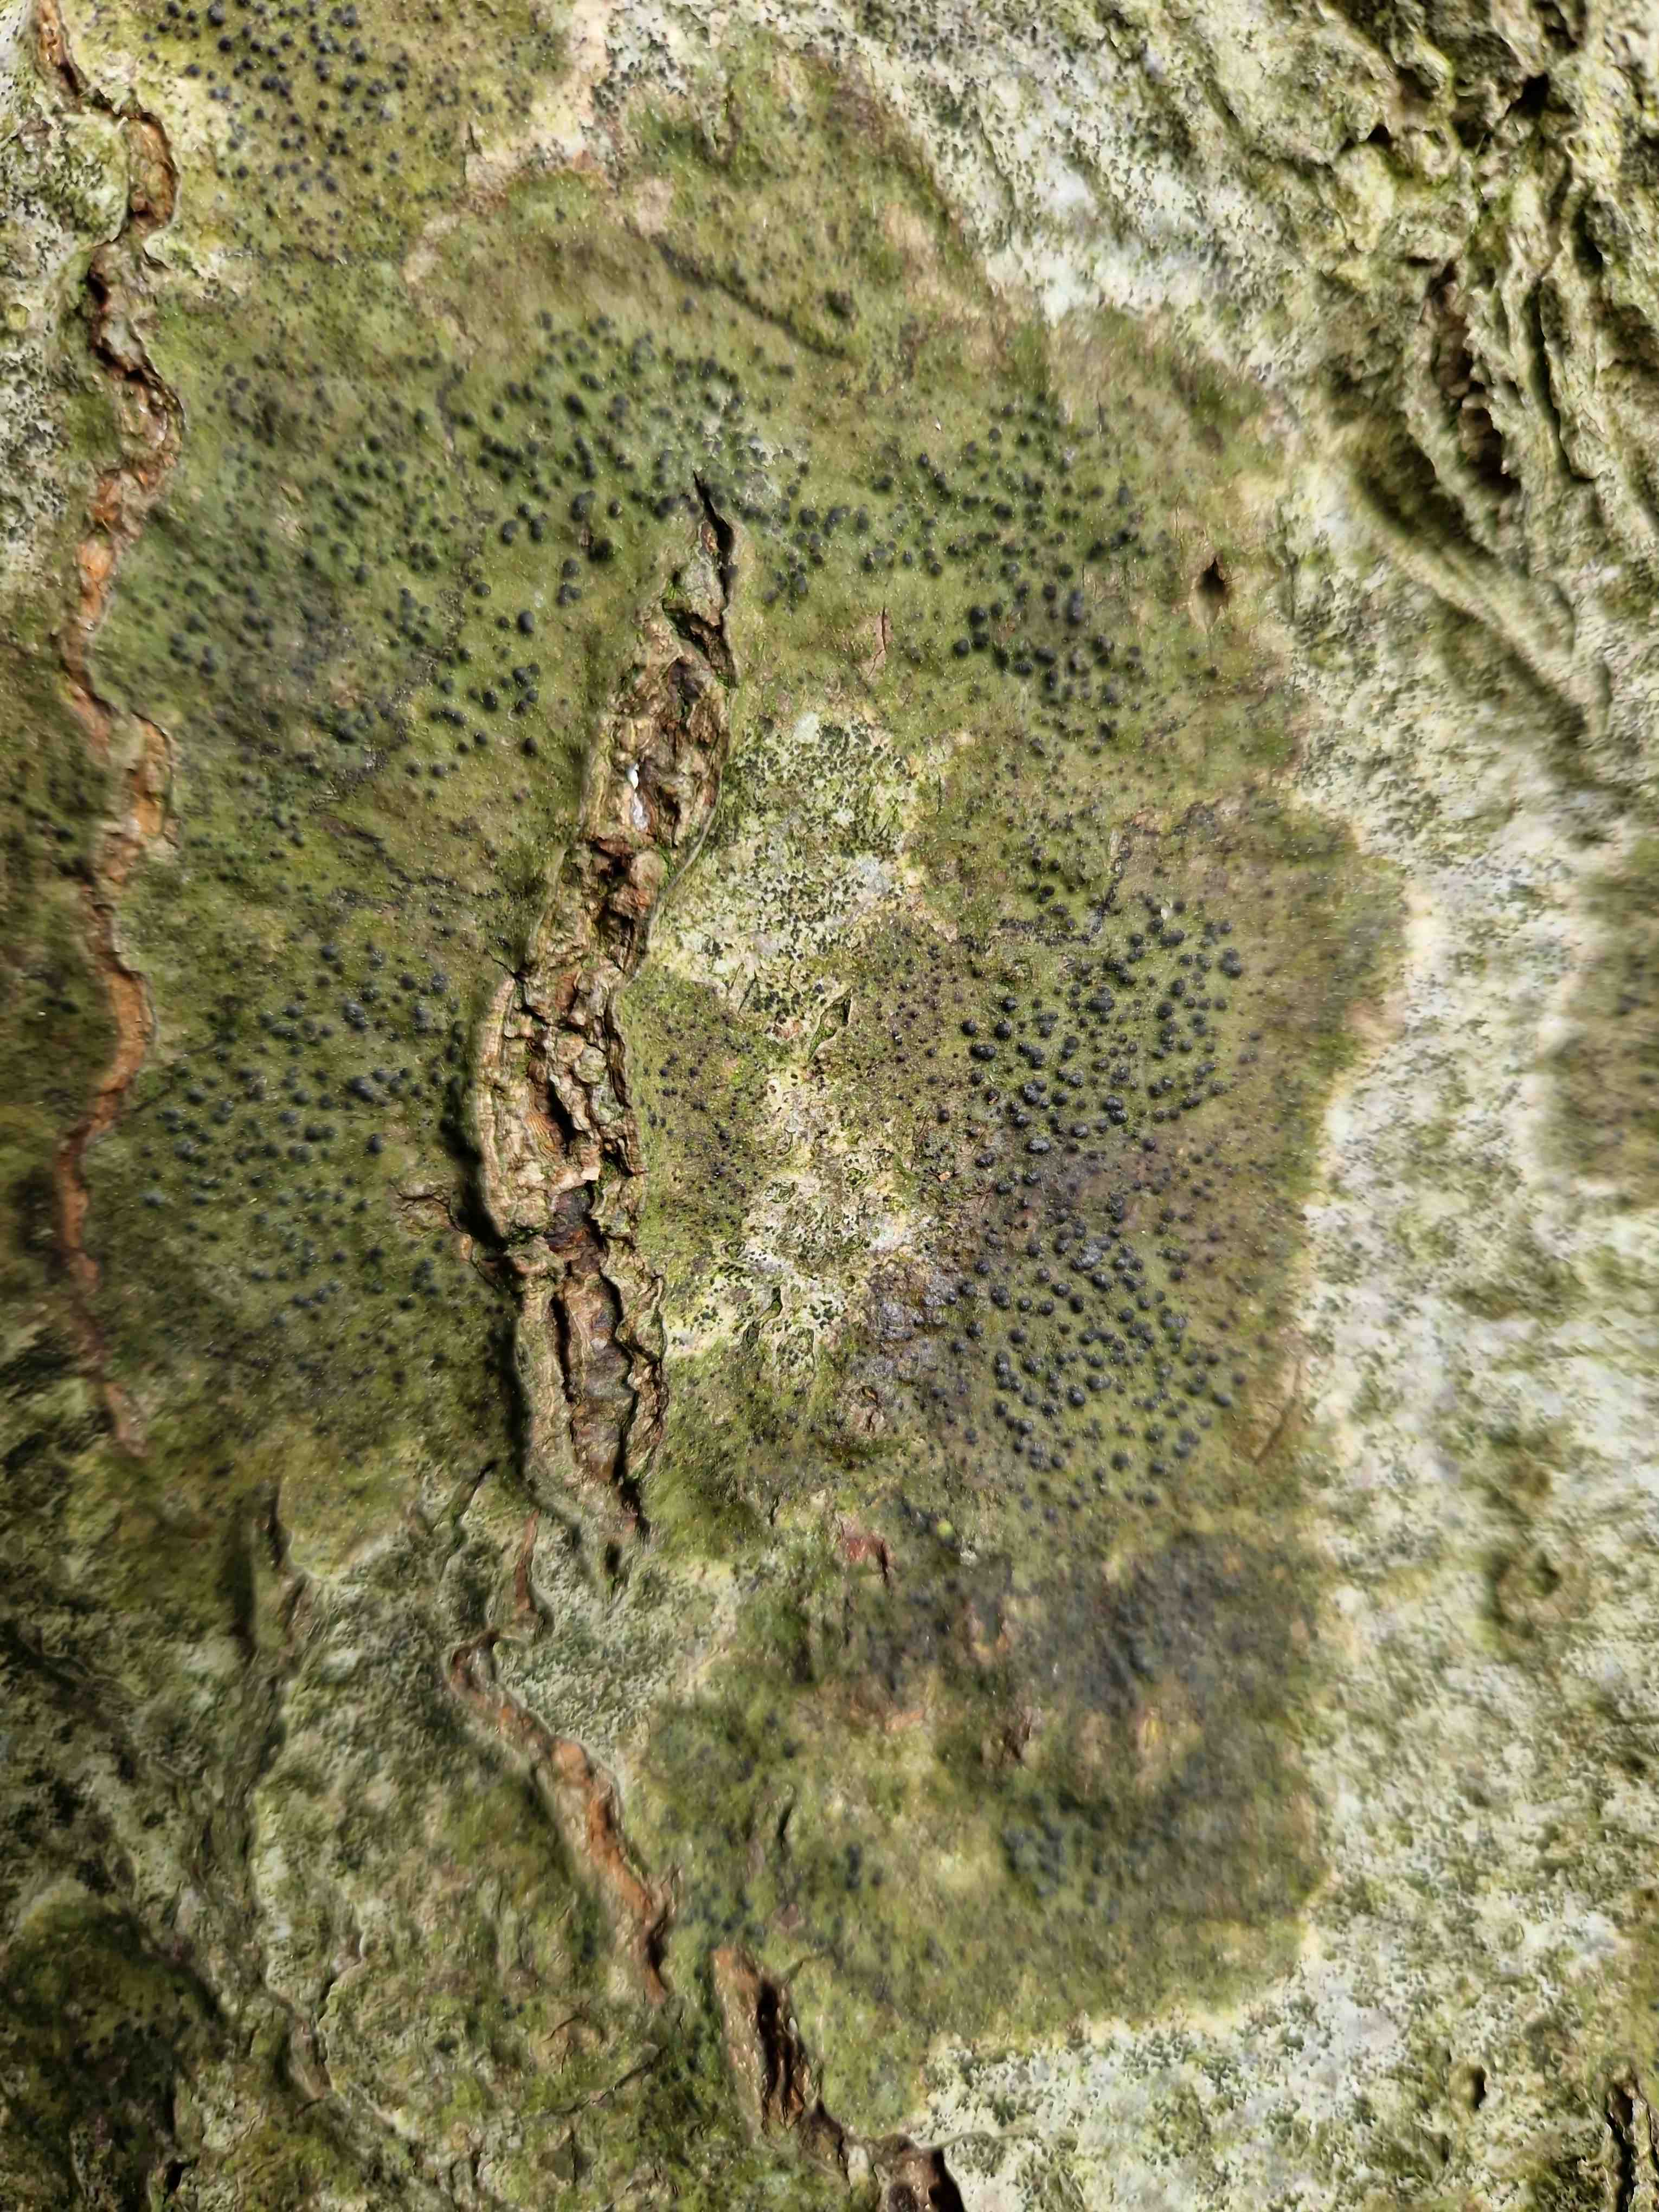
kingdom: Fungi
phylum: Ascomycota
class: Eurotiomycetes
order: Pyrenulales
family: Pyrenulaceae
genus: Pyrenula
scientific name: Pyrenula nitida
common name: glinsende kernelav
